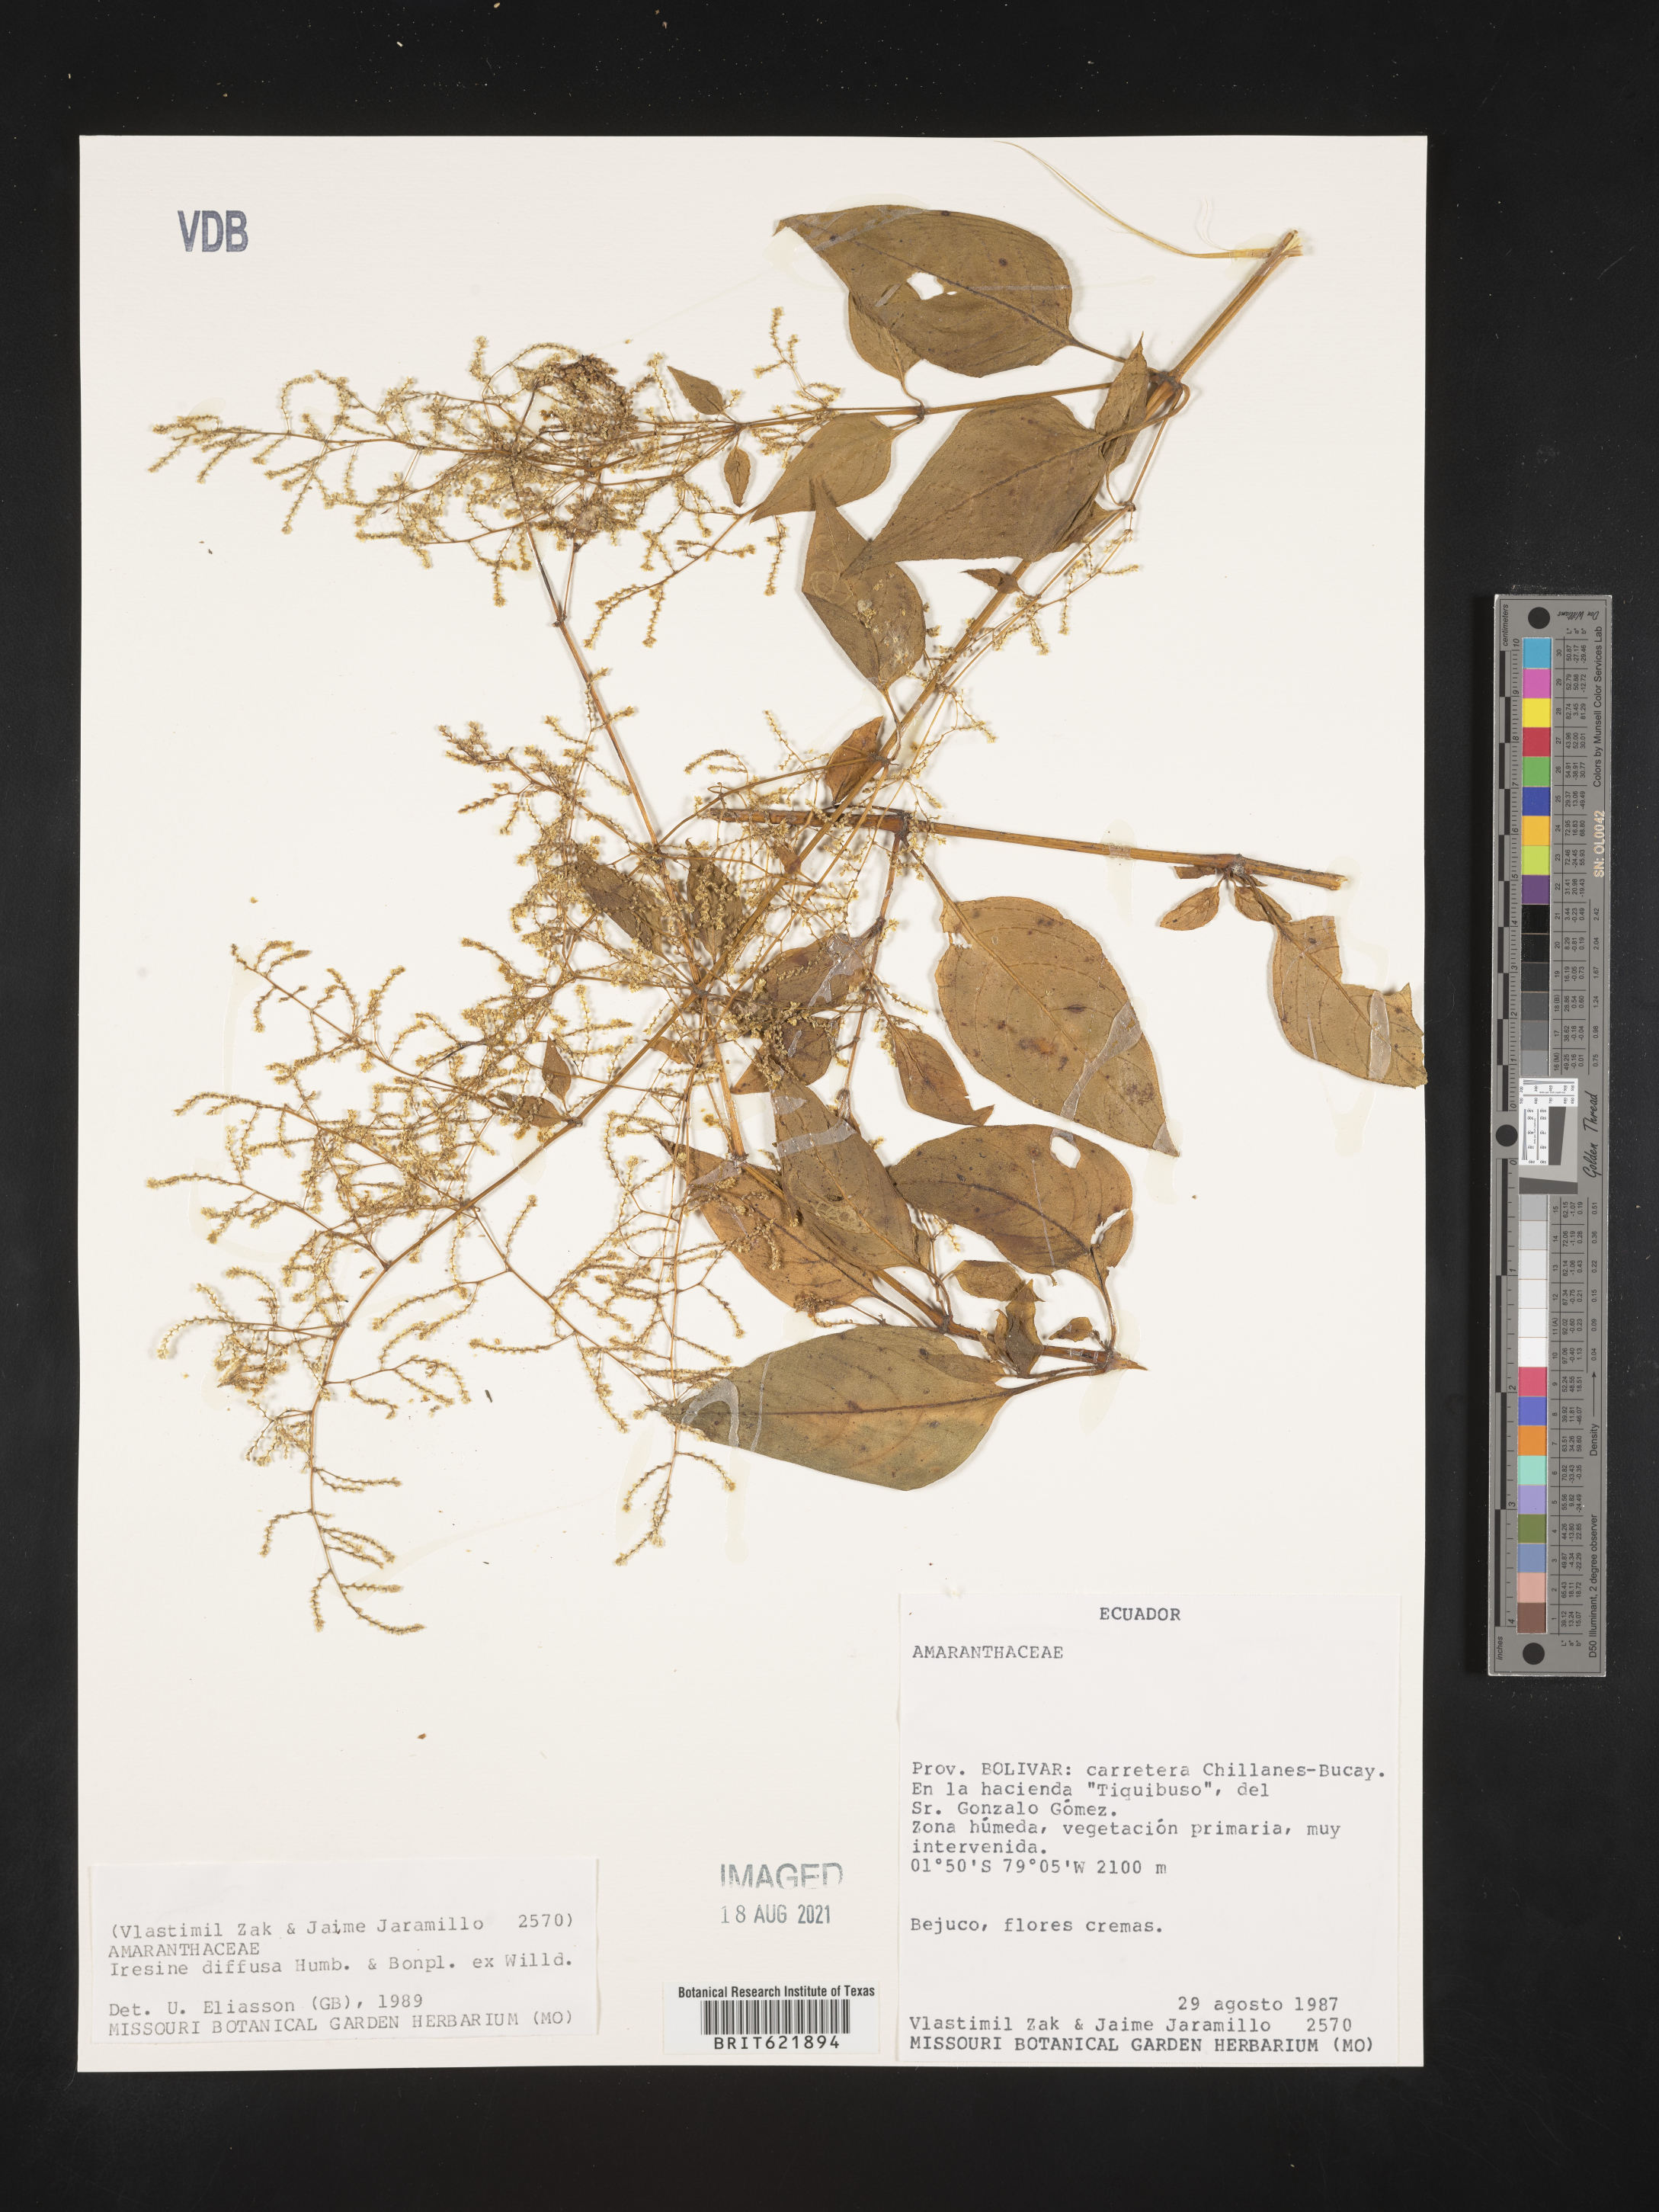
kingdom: Plantae
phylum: Tracheophyta
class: Magnoliopsida
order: Caryophyllales
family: Amaranthaceae
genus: Iresine
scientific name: Iresine diffusa
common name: Juba's-bush
